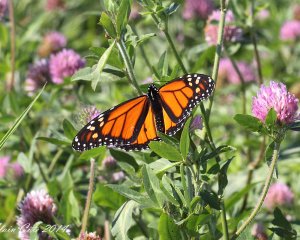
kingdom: Animalia
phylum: Arthropoda
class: Insecta
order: Lepidoptera
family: Nymphalidae
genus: Danaus
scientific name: Danaus plexippus
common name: Monarch
